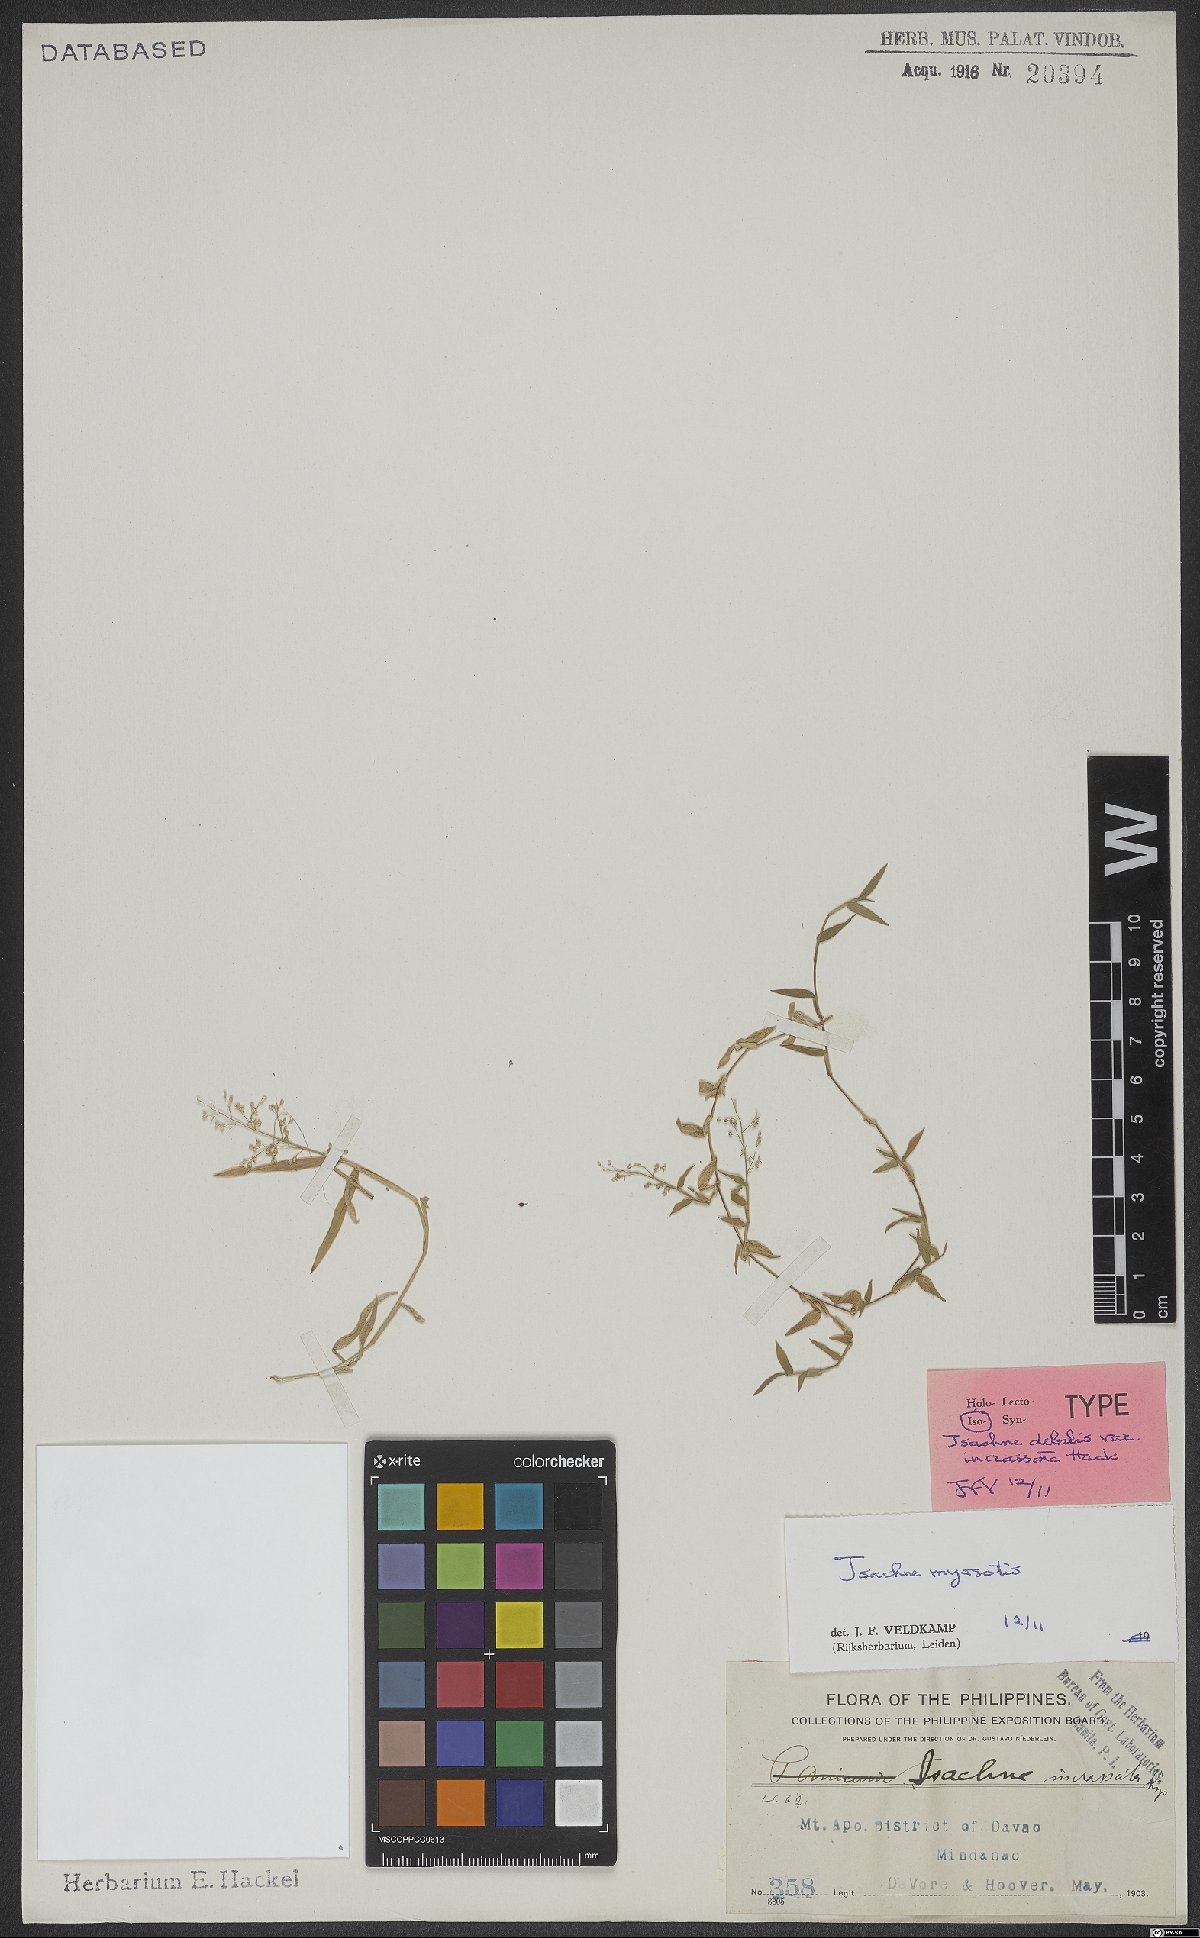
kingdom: Plantae
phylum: Tracheophyta
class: Liliopsida
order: Poales
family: Poaceae
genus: Isachne
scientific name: Isachne myosotis
